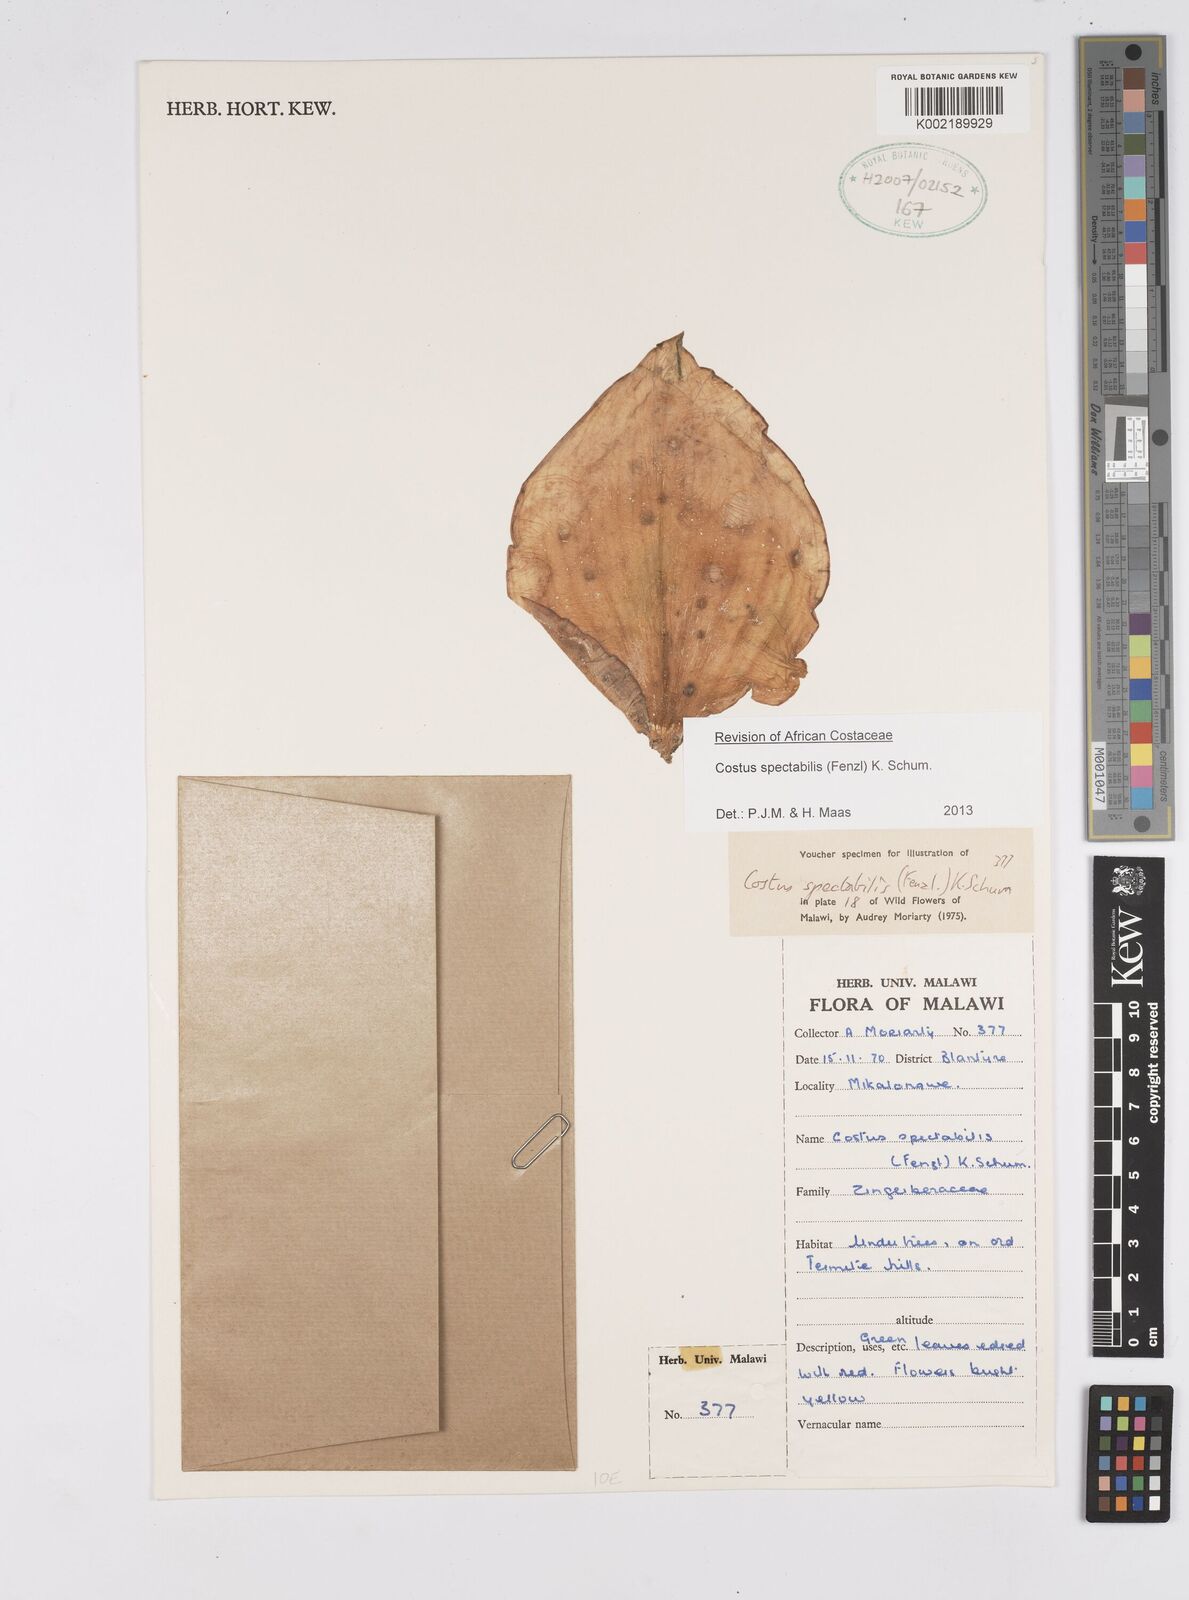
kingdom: Plantae
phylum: Tracheophyta
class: Liliopsida
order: Zingiberales
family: Costaceae
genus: Costus
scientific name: Costus spectabilis
